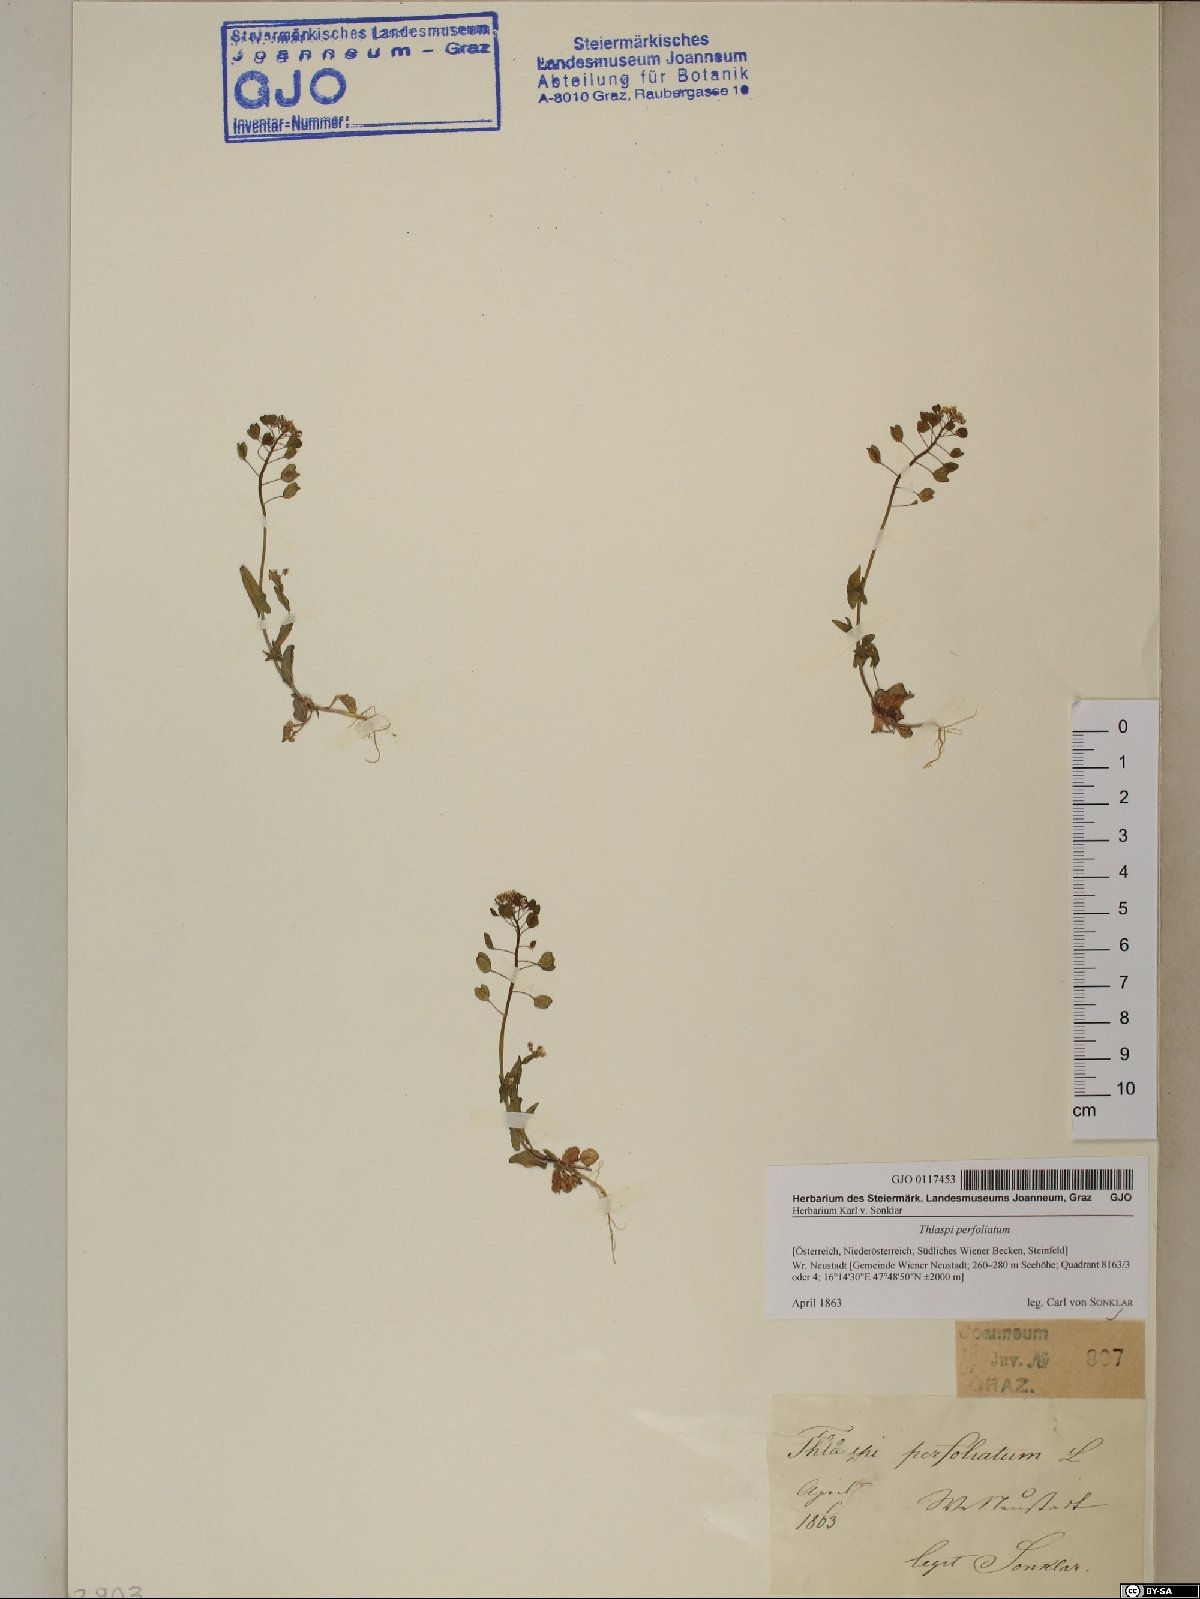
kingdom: Plantae
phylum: Tracheophyta
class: Magnoliopsida
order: Brassicales
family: Brassicaceae
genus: Noccaea
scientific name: Noccaea perfoliata
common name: Perfoliate pennycress
